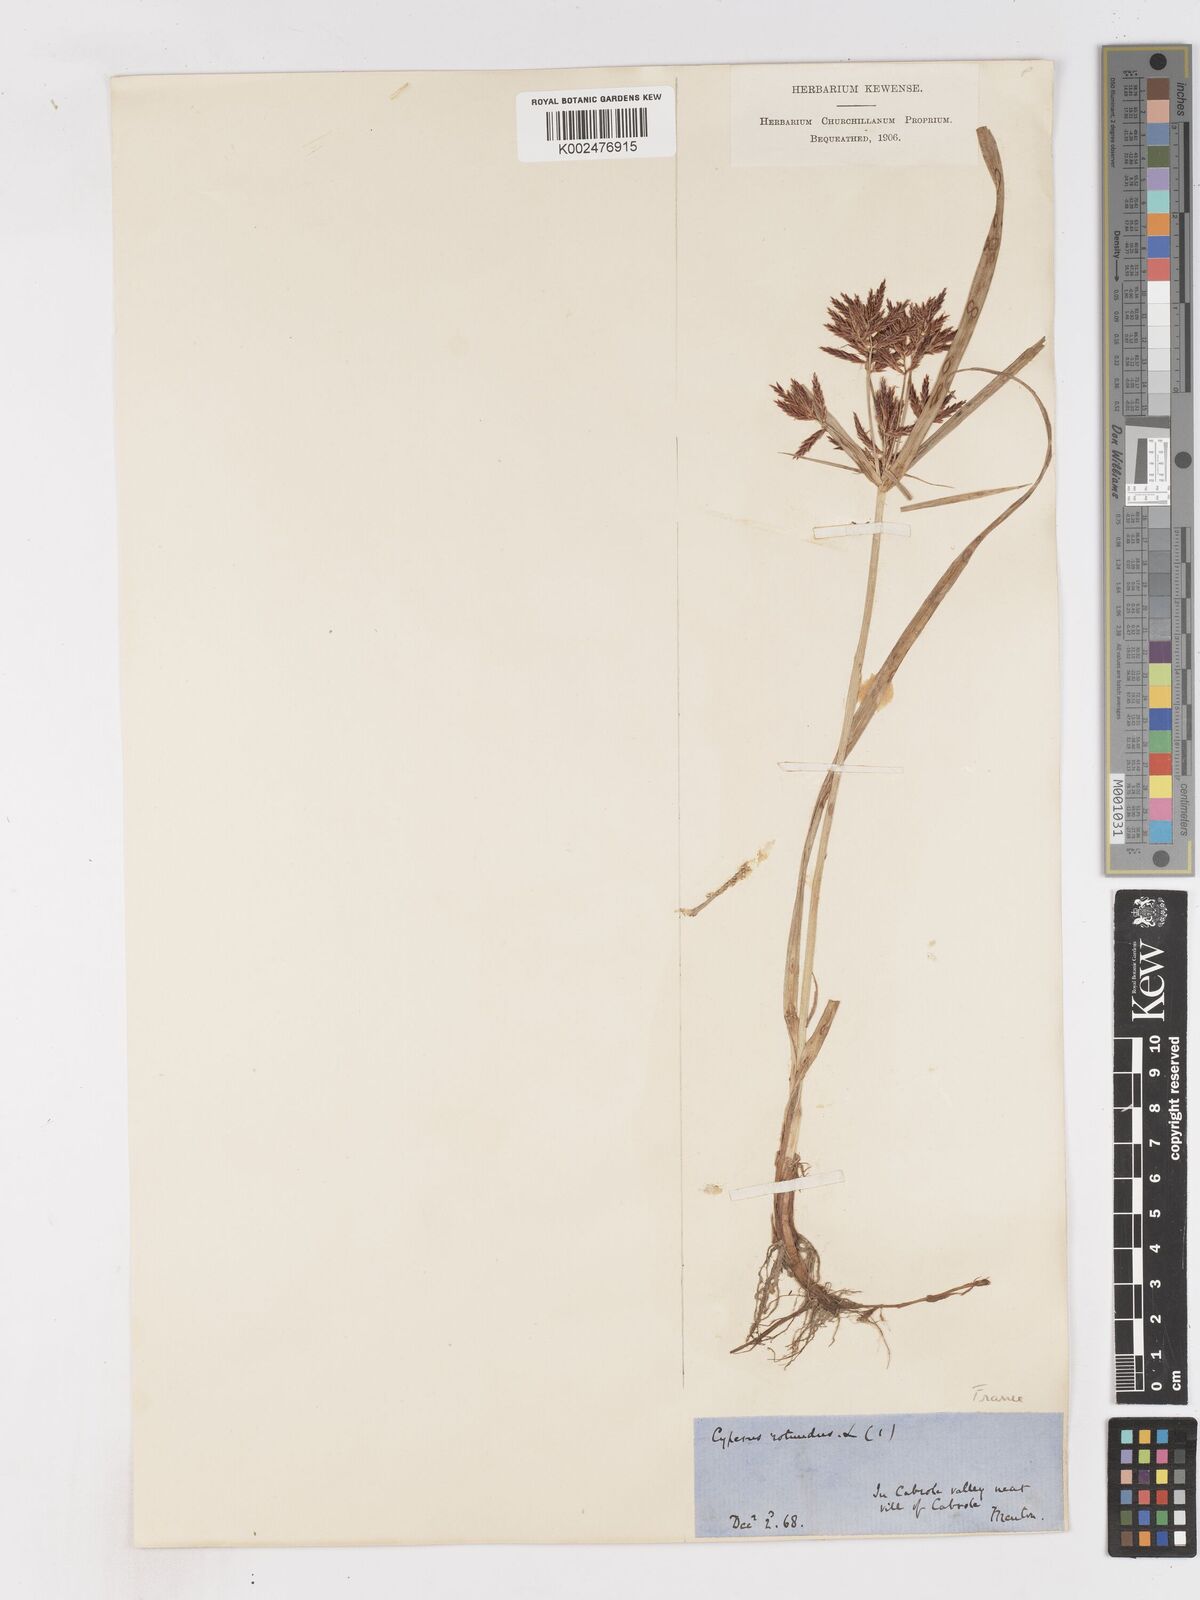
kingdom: Plantae
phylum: Tracheophyta
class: Liliopsida
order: Poales
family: Cyperaceae
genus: Cyperus
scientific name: Cyperus rotundus
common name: Nutgrass
